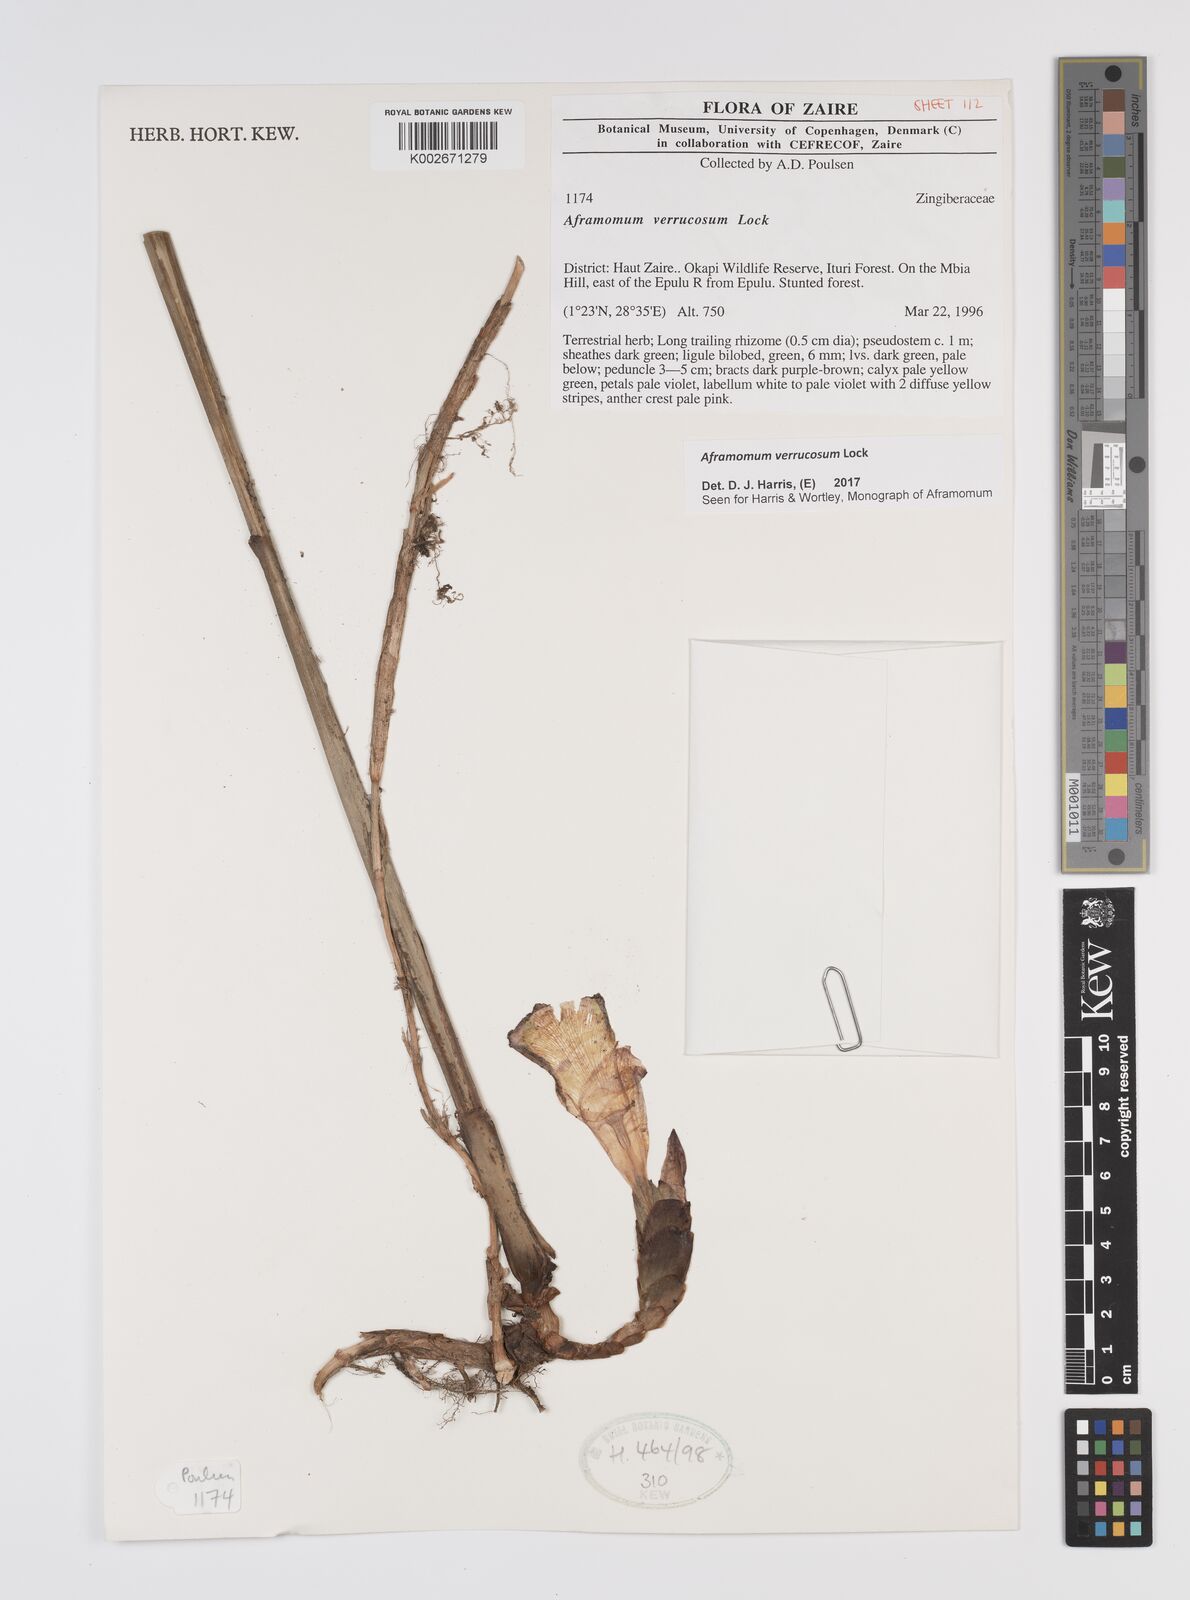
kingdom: Plantae
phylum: Tracheophyta
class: Liliopsida
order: Zingiberales
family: Zingiberaceae
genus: Aframomum
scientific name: Aframomum verrucosum
